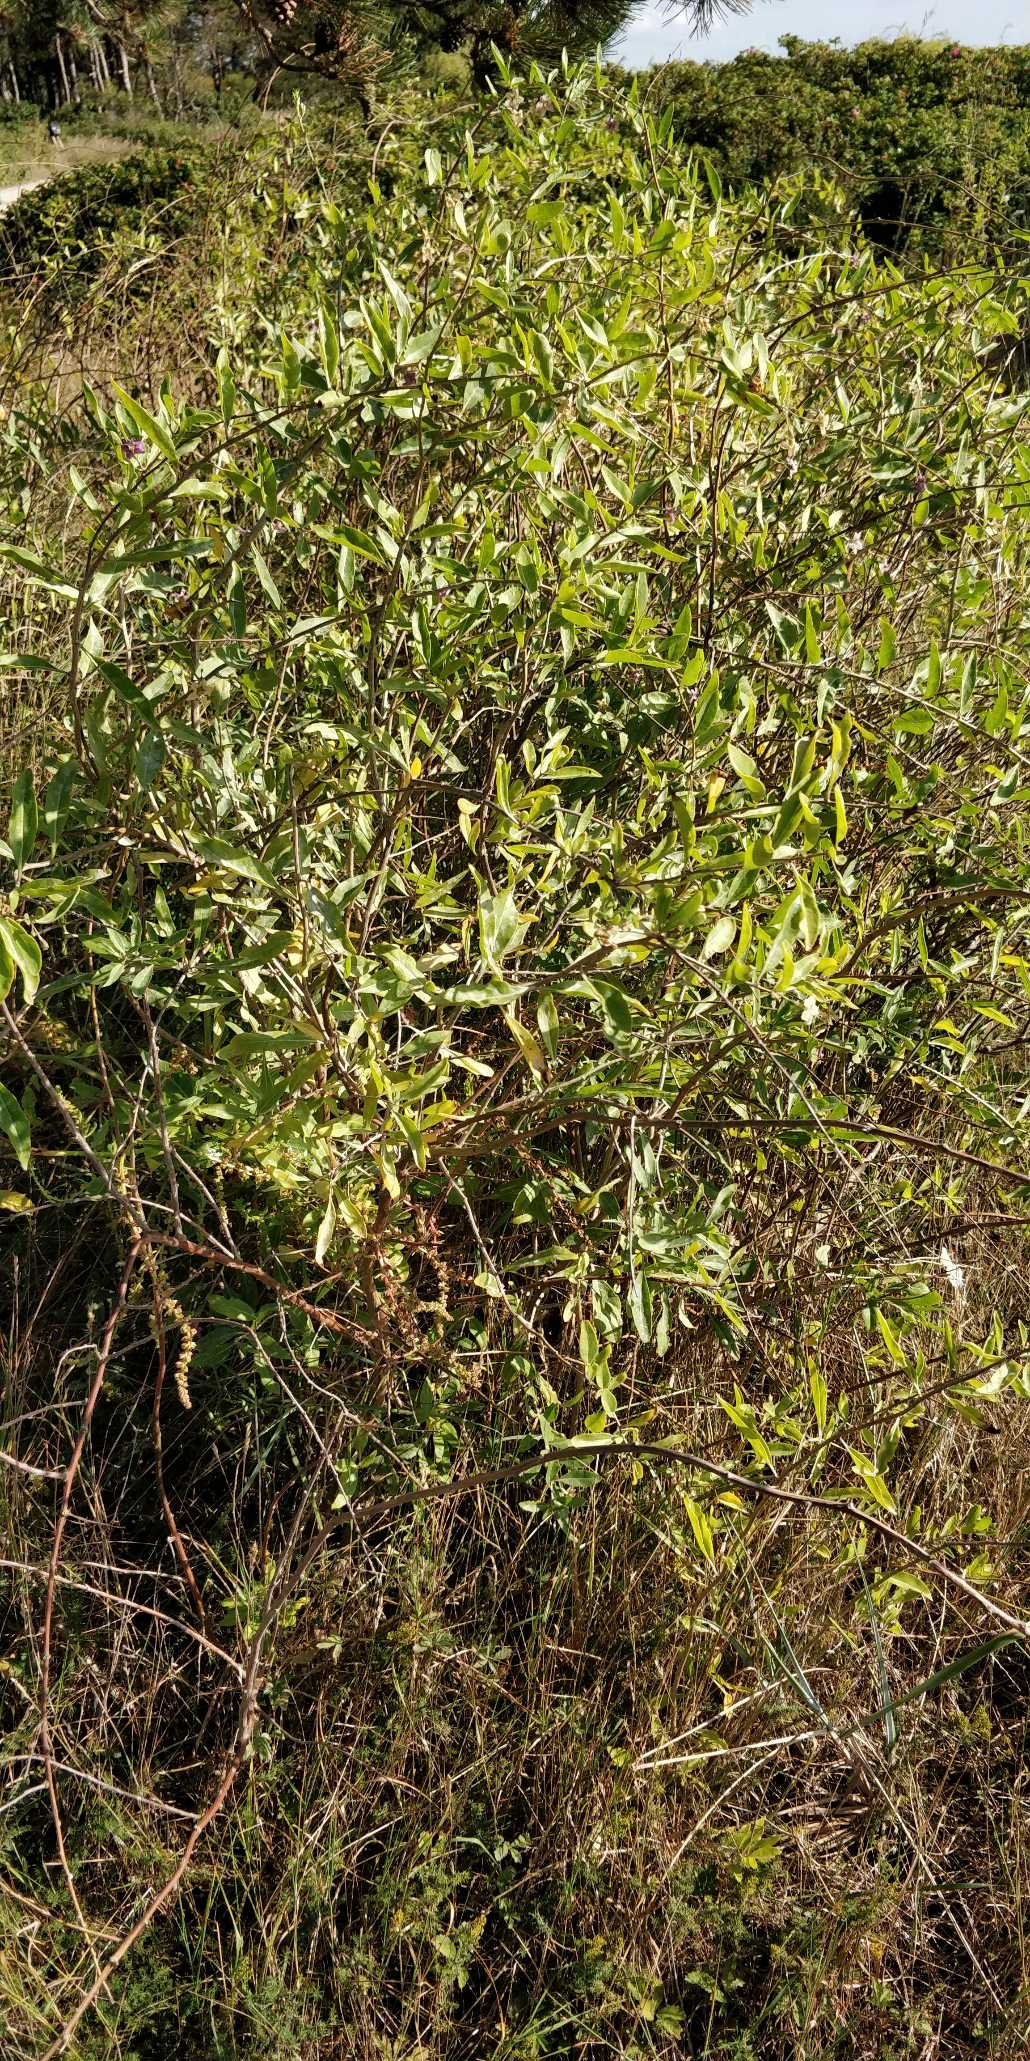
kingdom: Plantae
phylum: Tracheophyta
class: Magnoliopsida
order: Solanales
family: Solanaceae
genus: Lycium
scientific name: Lycium barbarum
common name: Bukketorn
